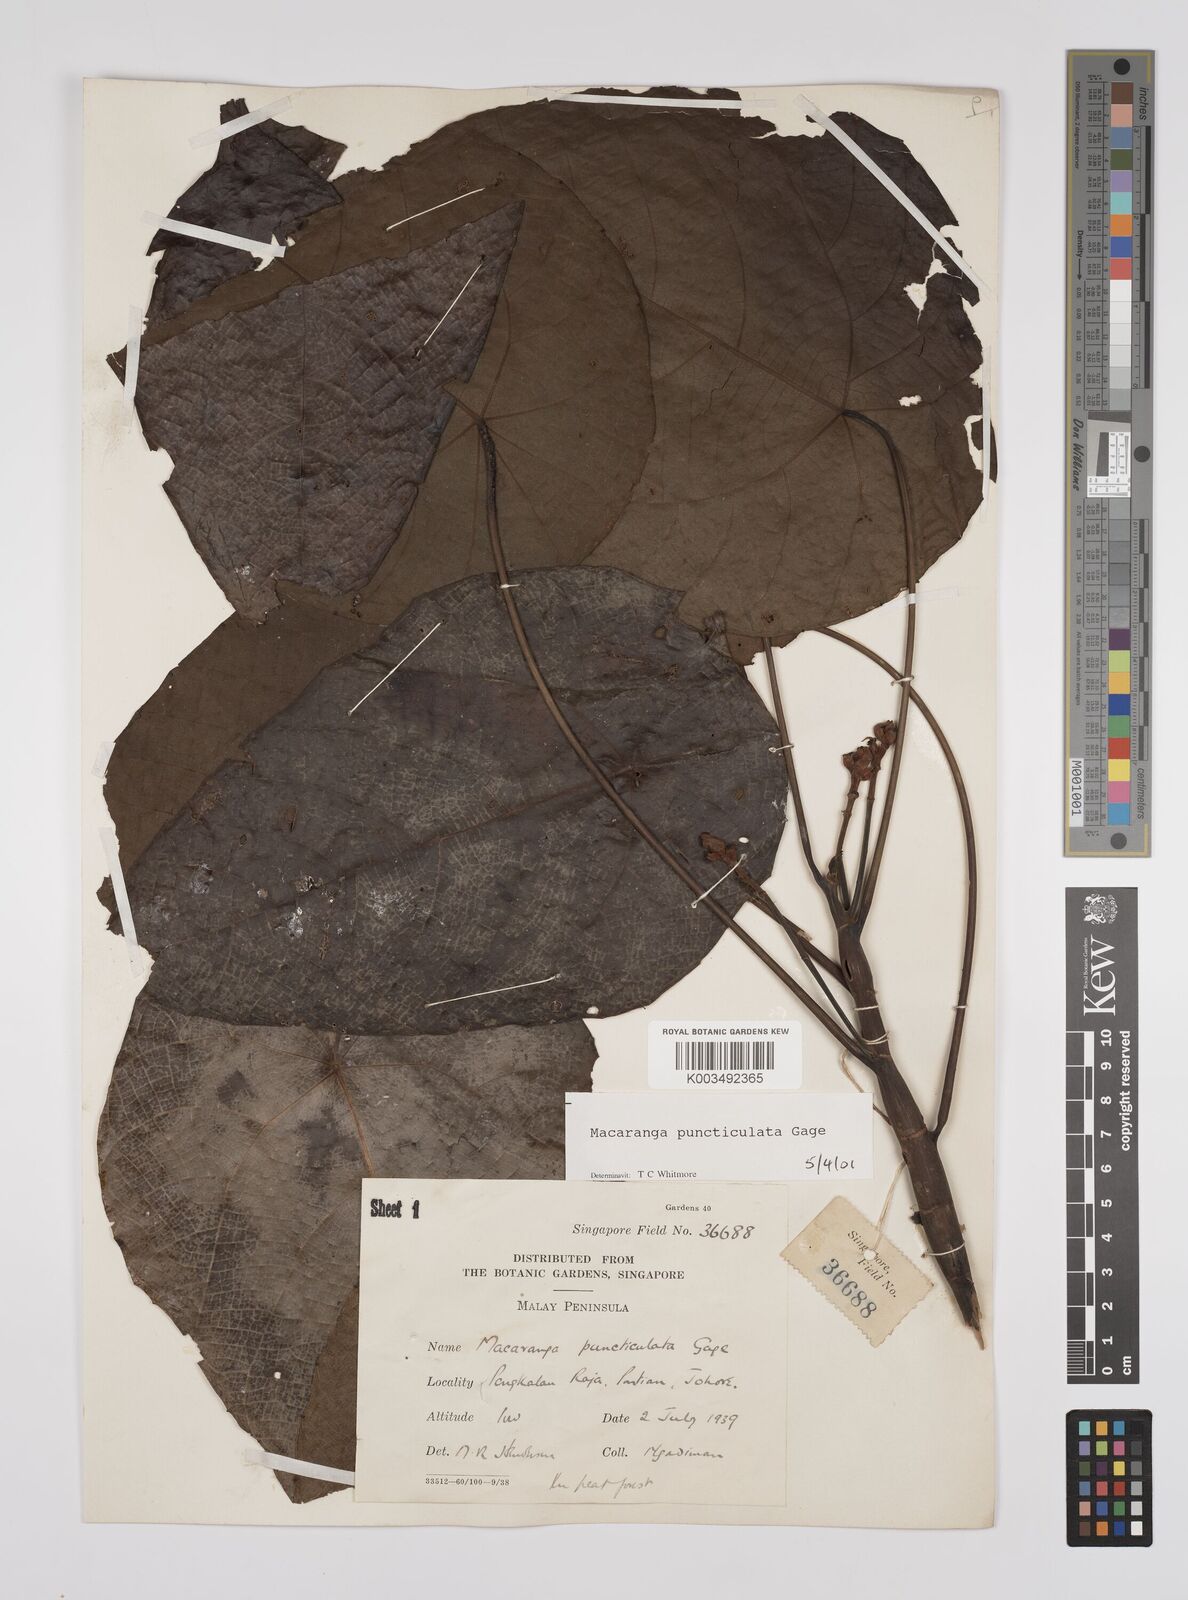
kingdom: Plantae
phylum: Tracheophyta
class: Magnoliopsida
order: Malpighiales
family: Euphorbiaceae
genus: Macaranga
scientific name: Macaranga puncticulata
